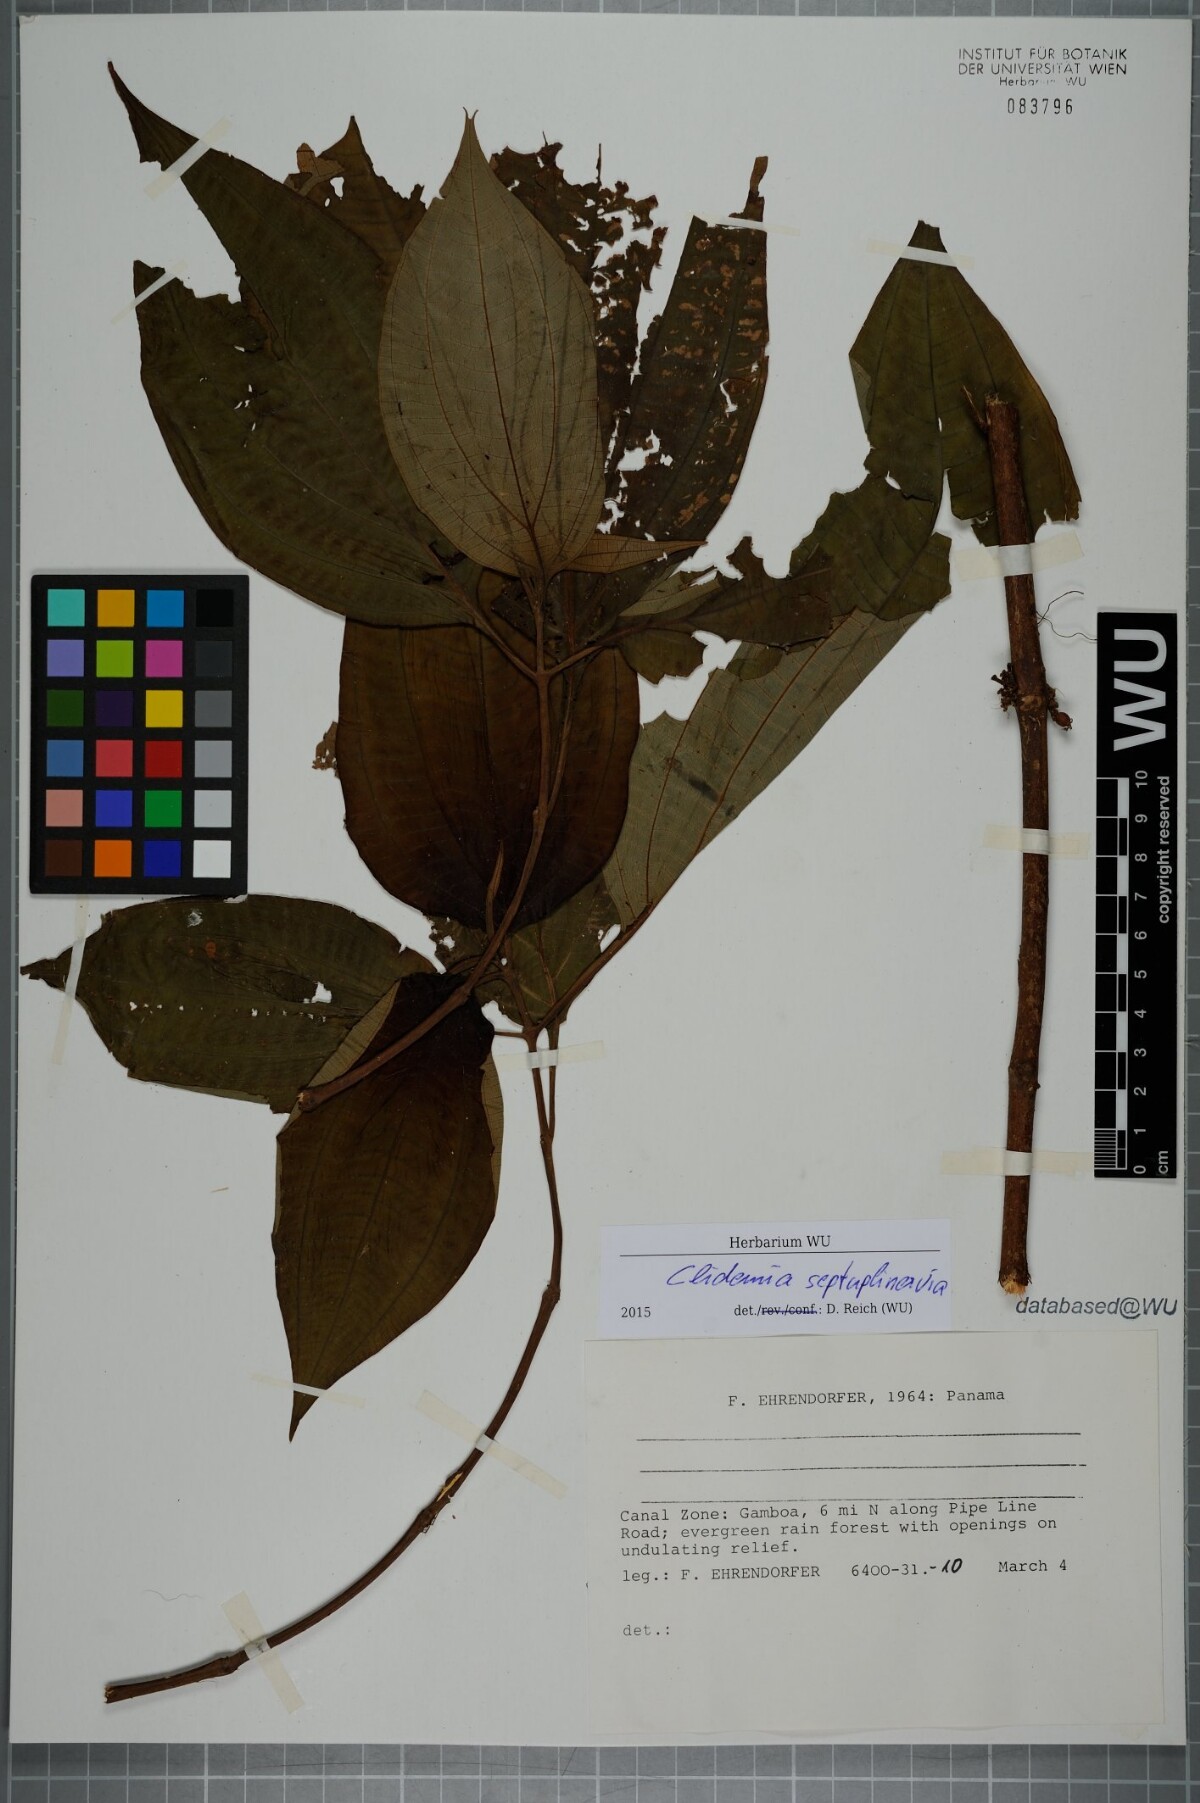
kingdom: Plantae
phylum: Tracheophyta
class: Magnoliopsida
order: Myrtales
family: Melastomataceae
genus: Miconia
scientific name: Miconia trichocalyx
